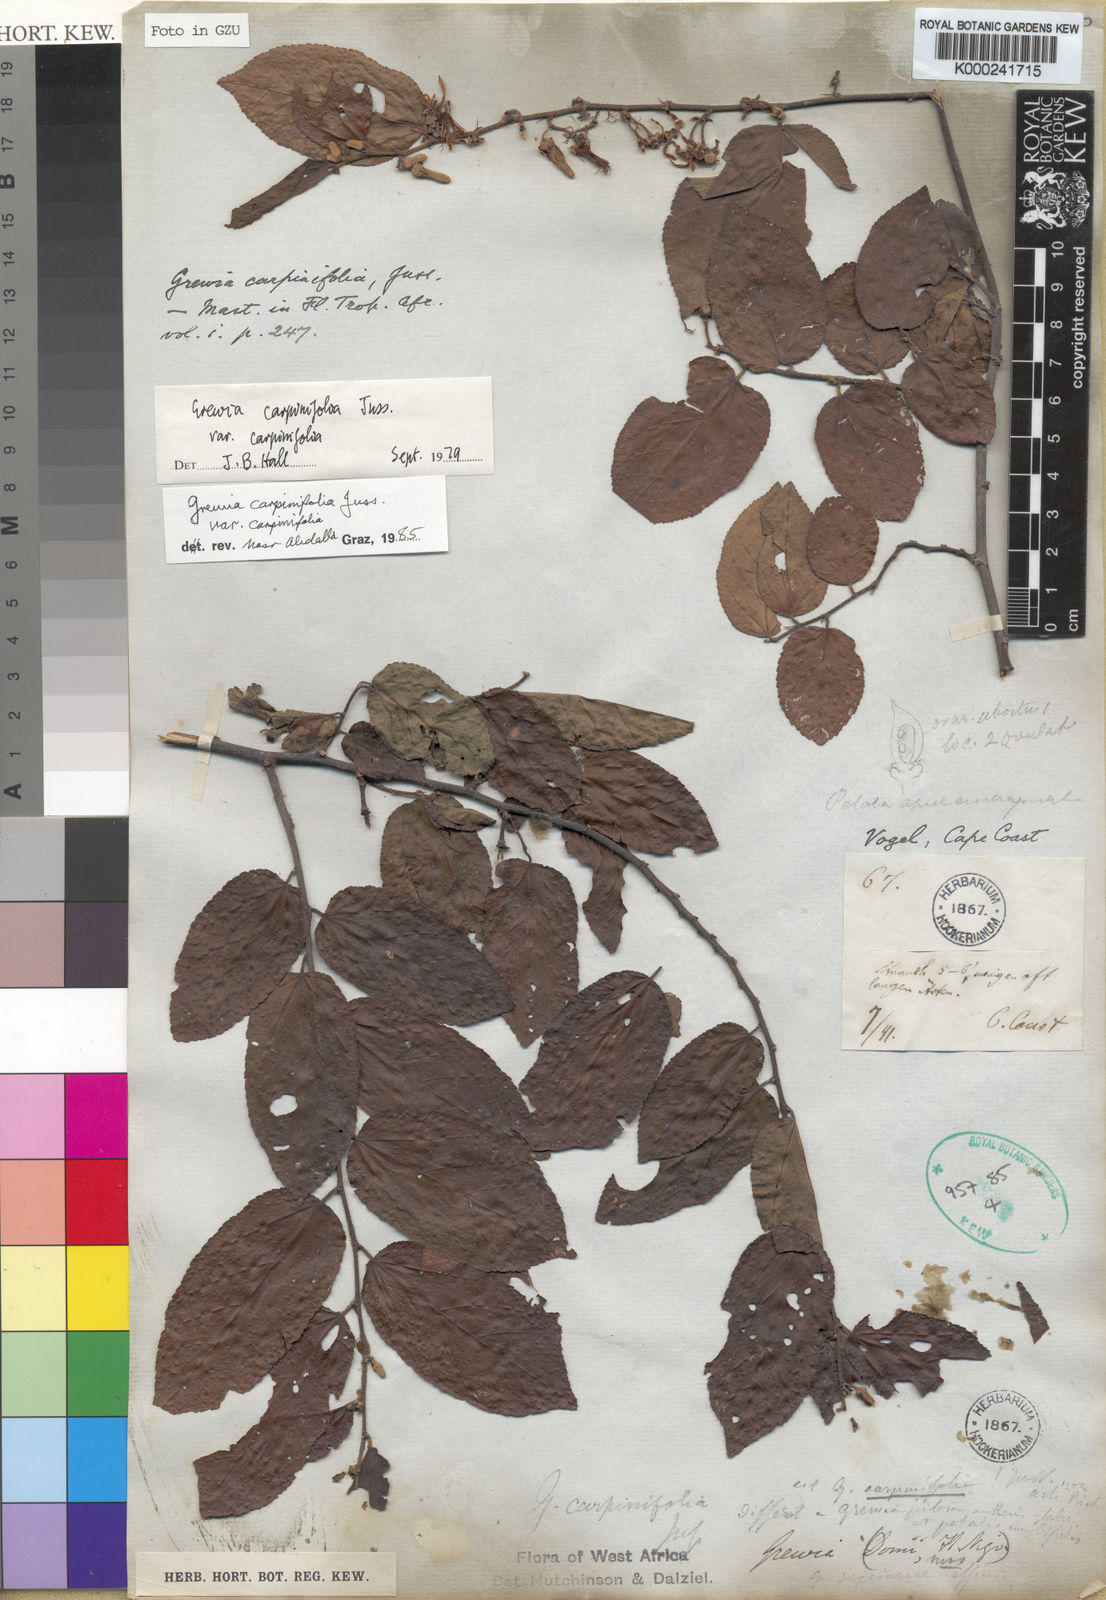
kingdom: Plantae
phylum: Tracheophyta
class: Magnoliopsida
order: Malvales
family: Malvaceae
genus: Grewia
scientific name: Grewia carpinifolia
